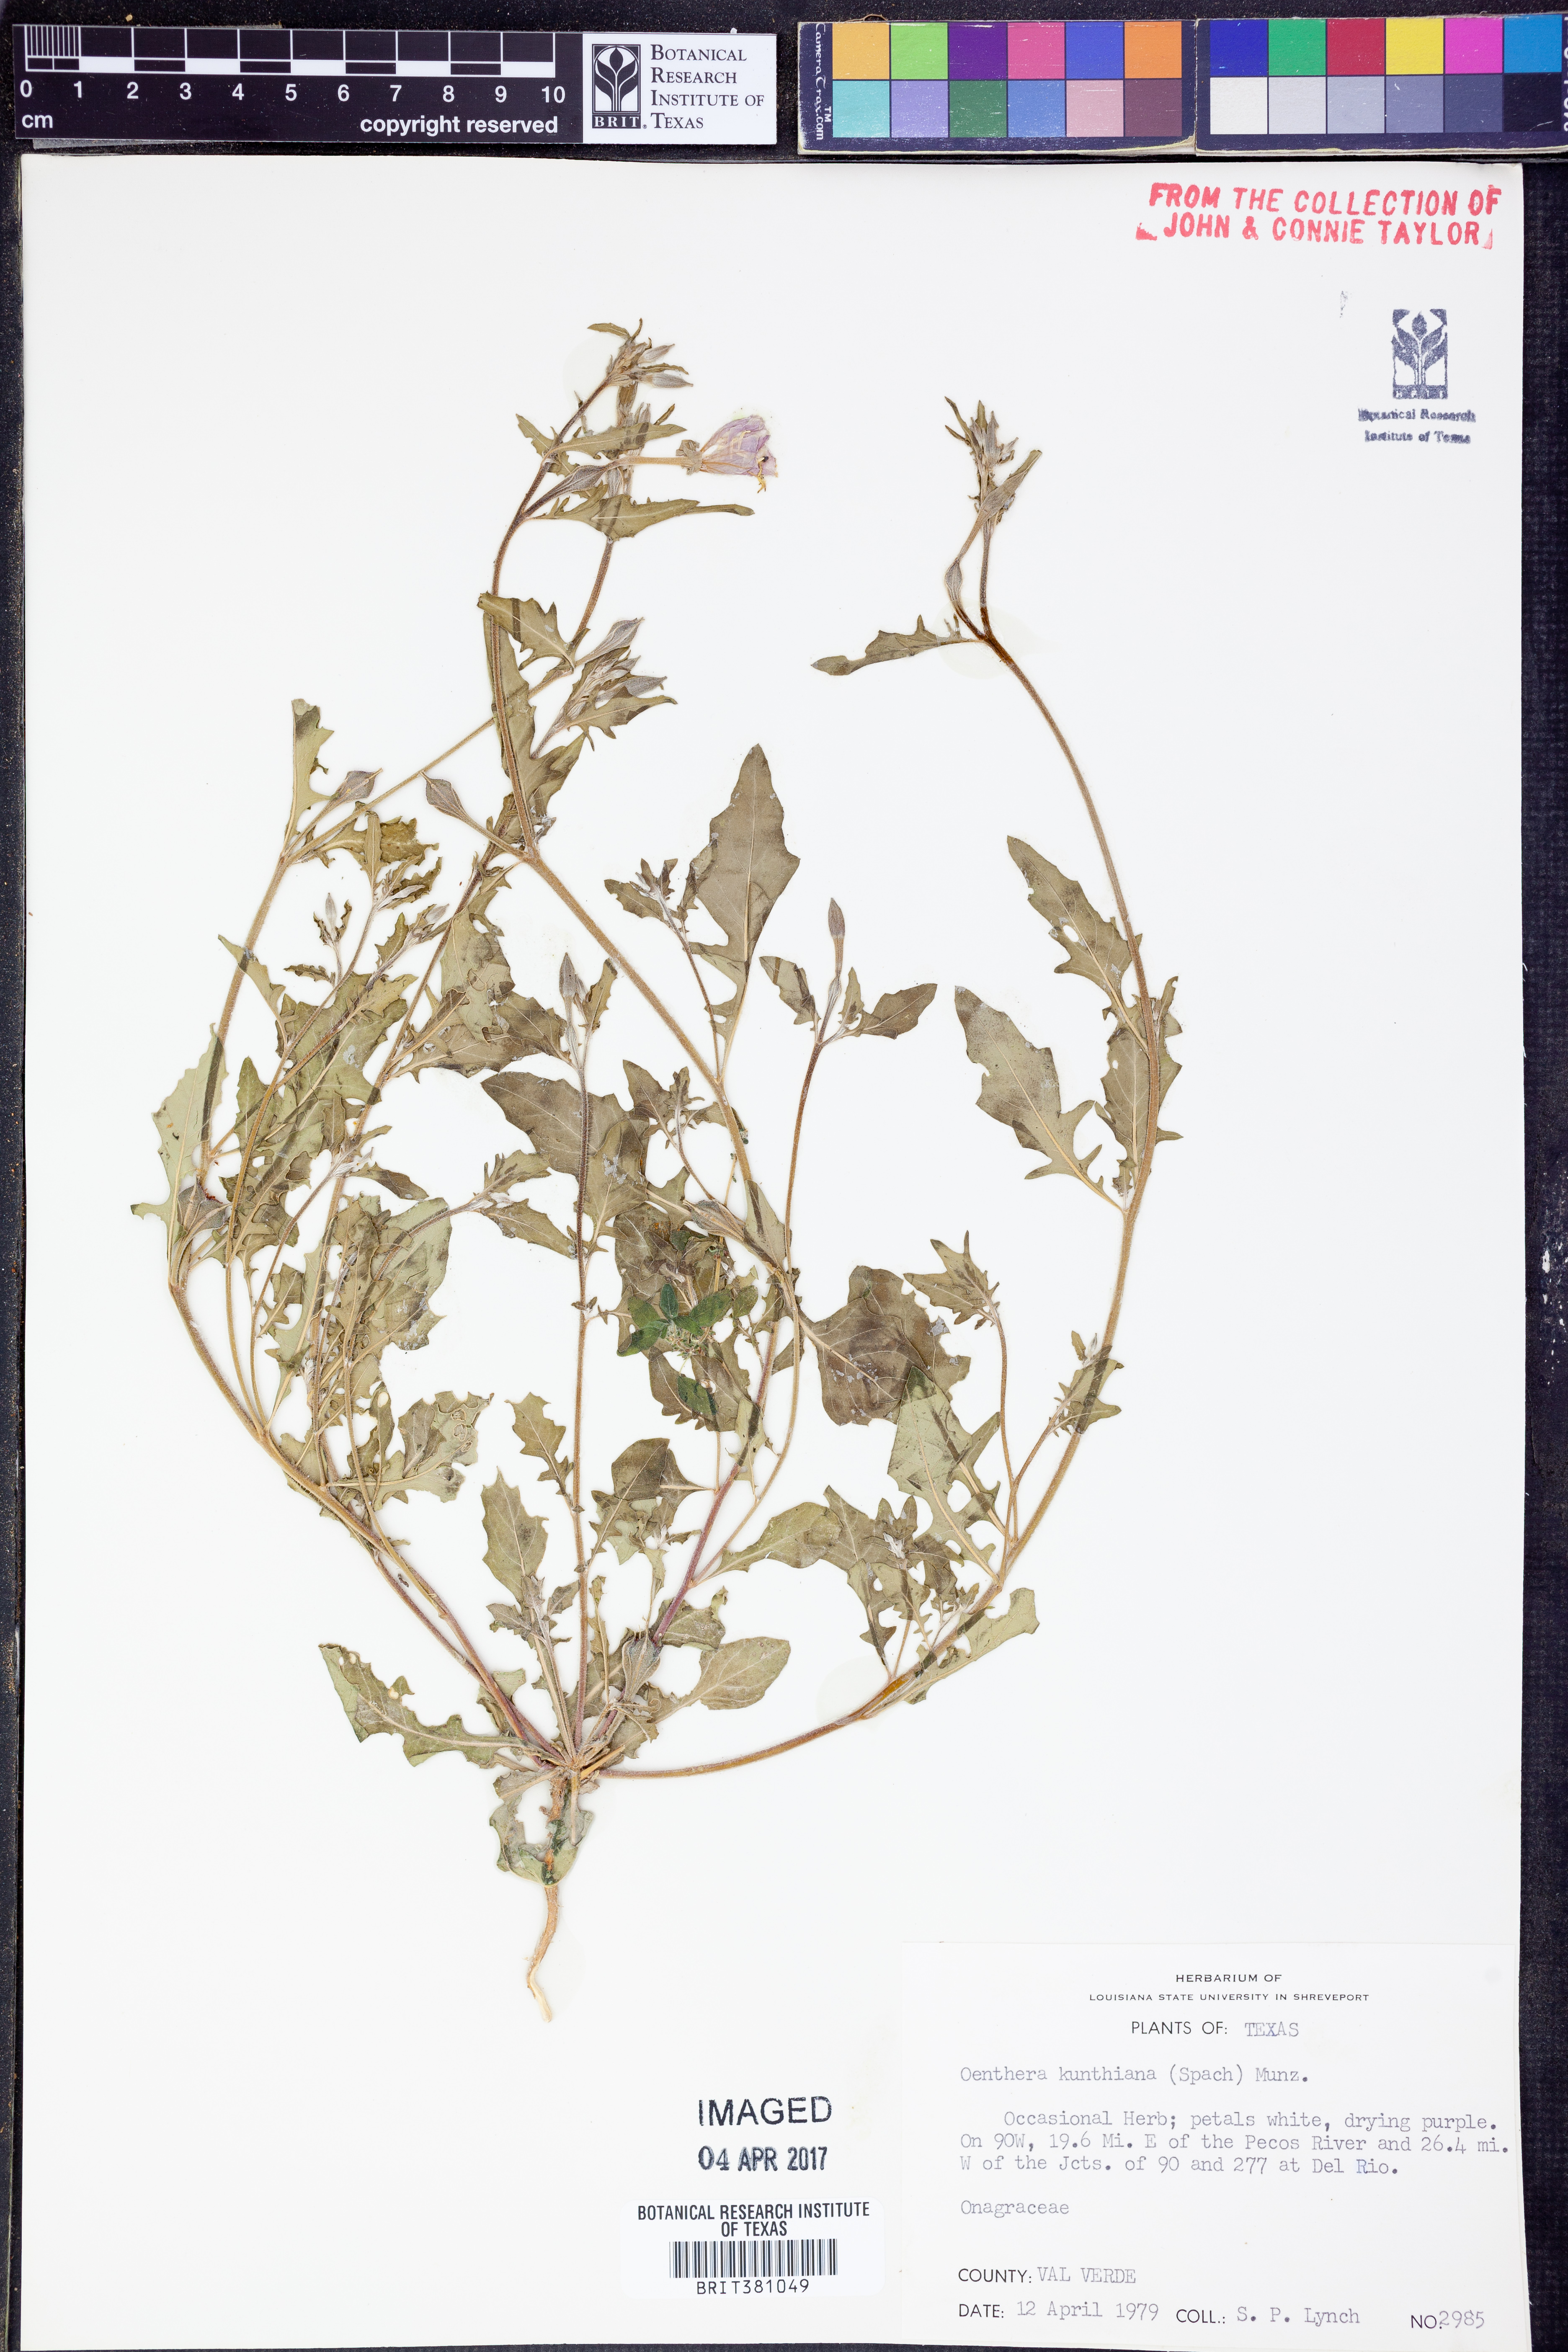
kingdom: Plantae
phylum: Tracheophyta
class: Magnoliopsida
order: Myrtales
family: Onagraceae
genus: Oenothera
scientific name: Oenothera kunthiana
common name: Kunth's evening-primrose
